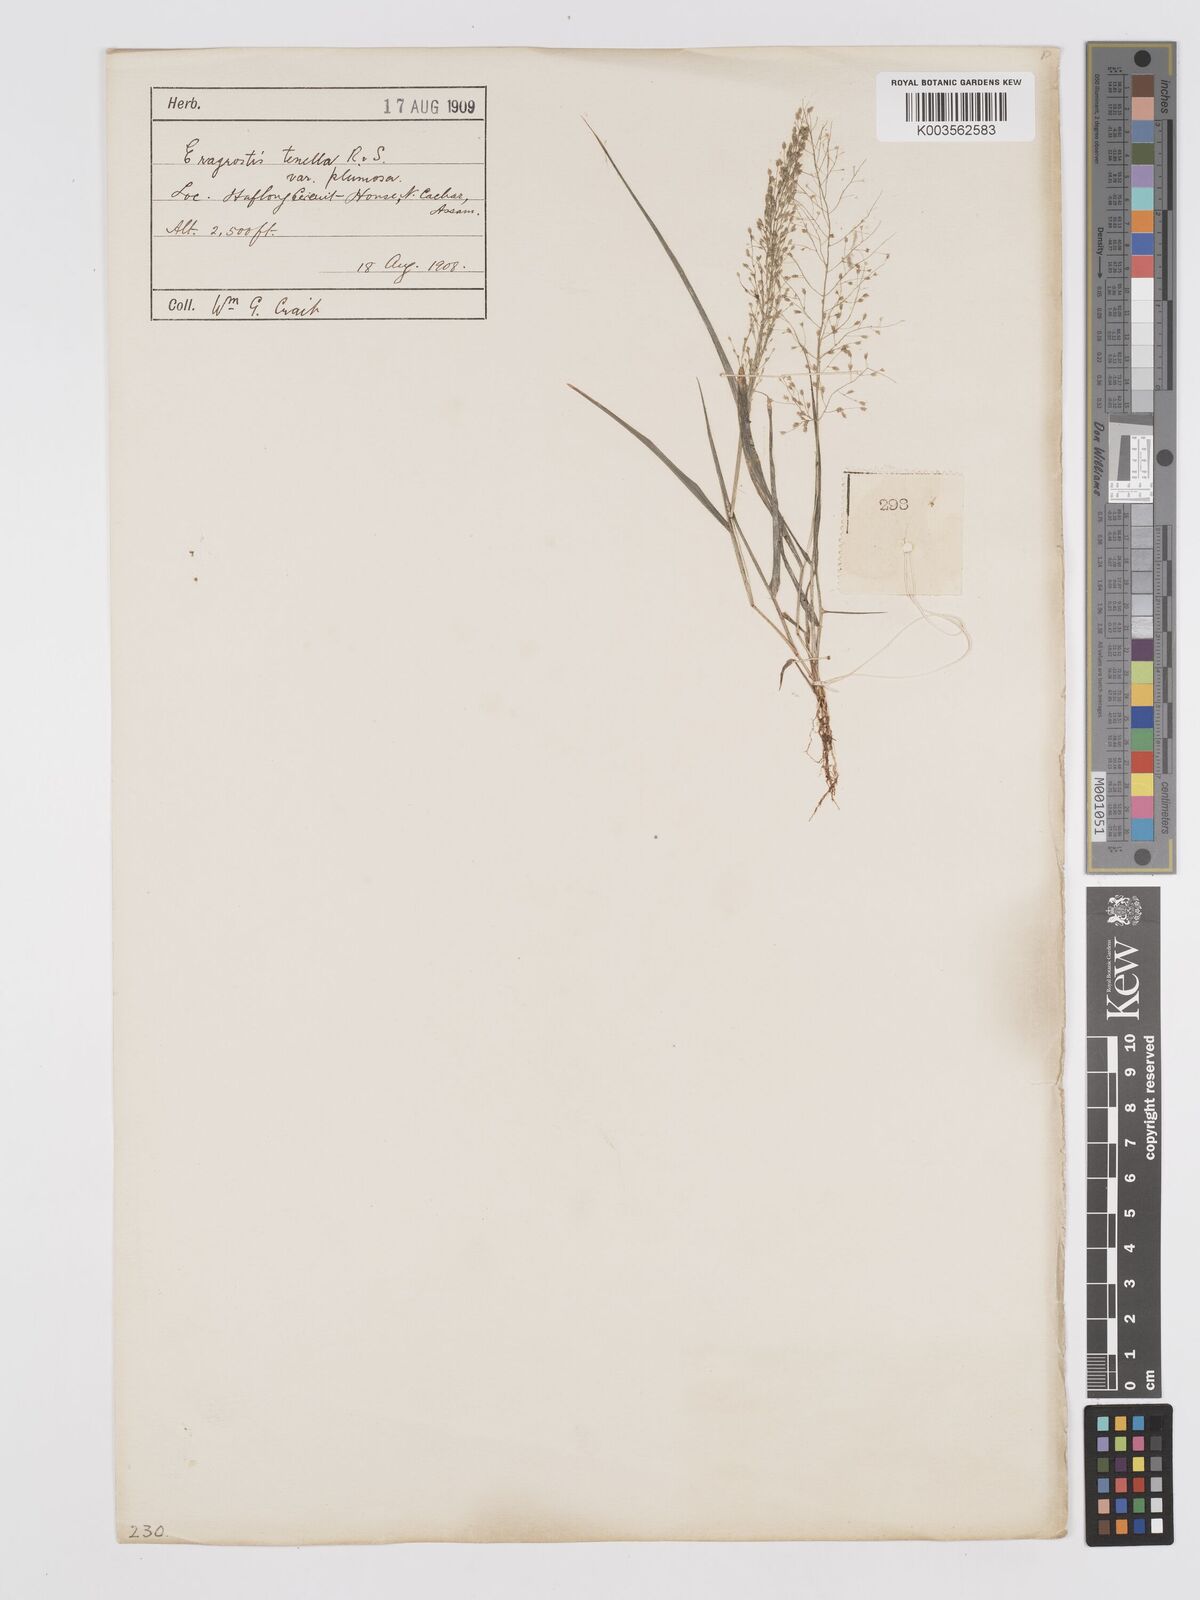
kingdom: Plantae
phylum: Tracheophyta
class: Liliopsida
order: Poales
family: Poaceae
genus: Eragrostis
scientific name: Eragrostis tenella
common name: Japanese lovegrass
